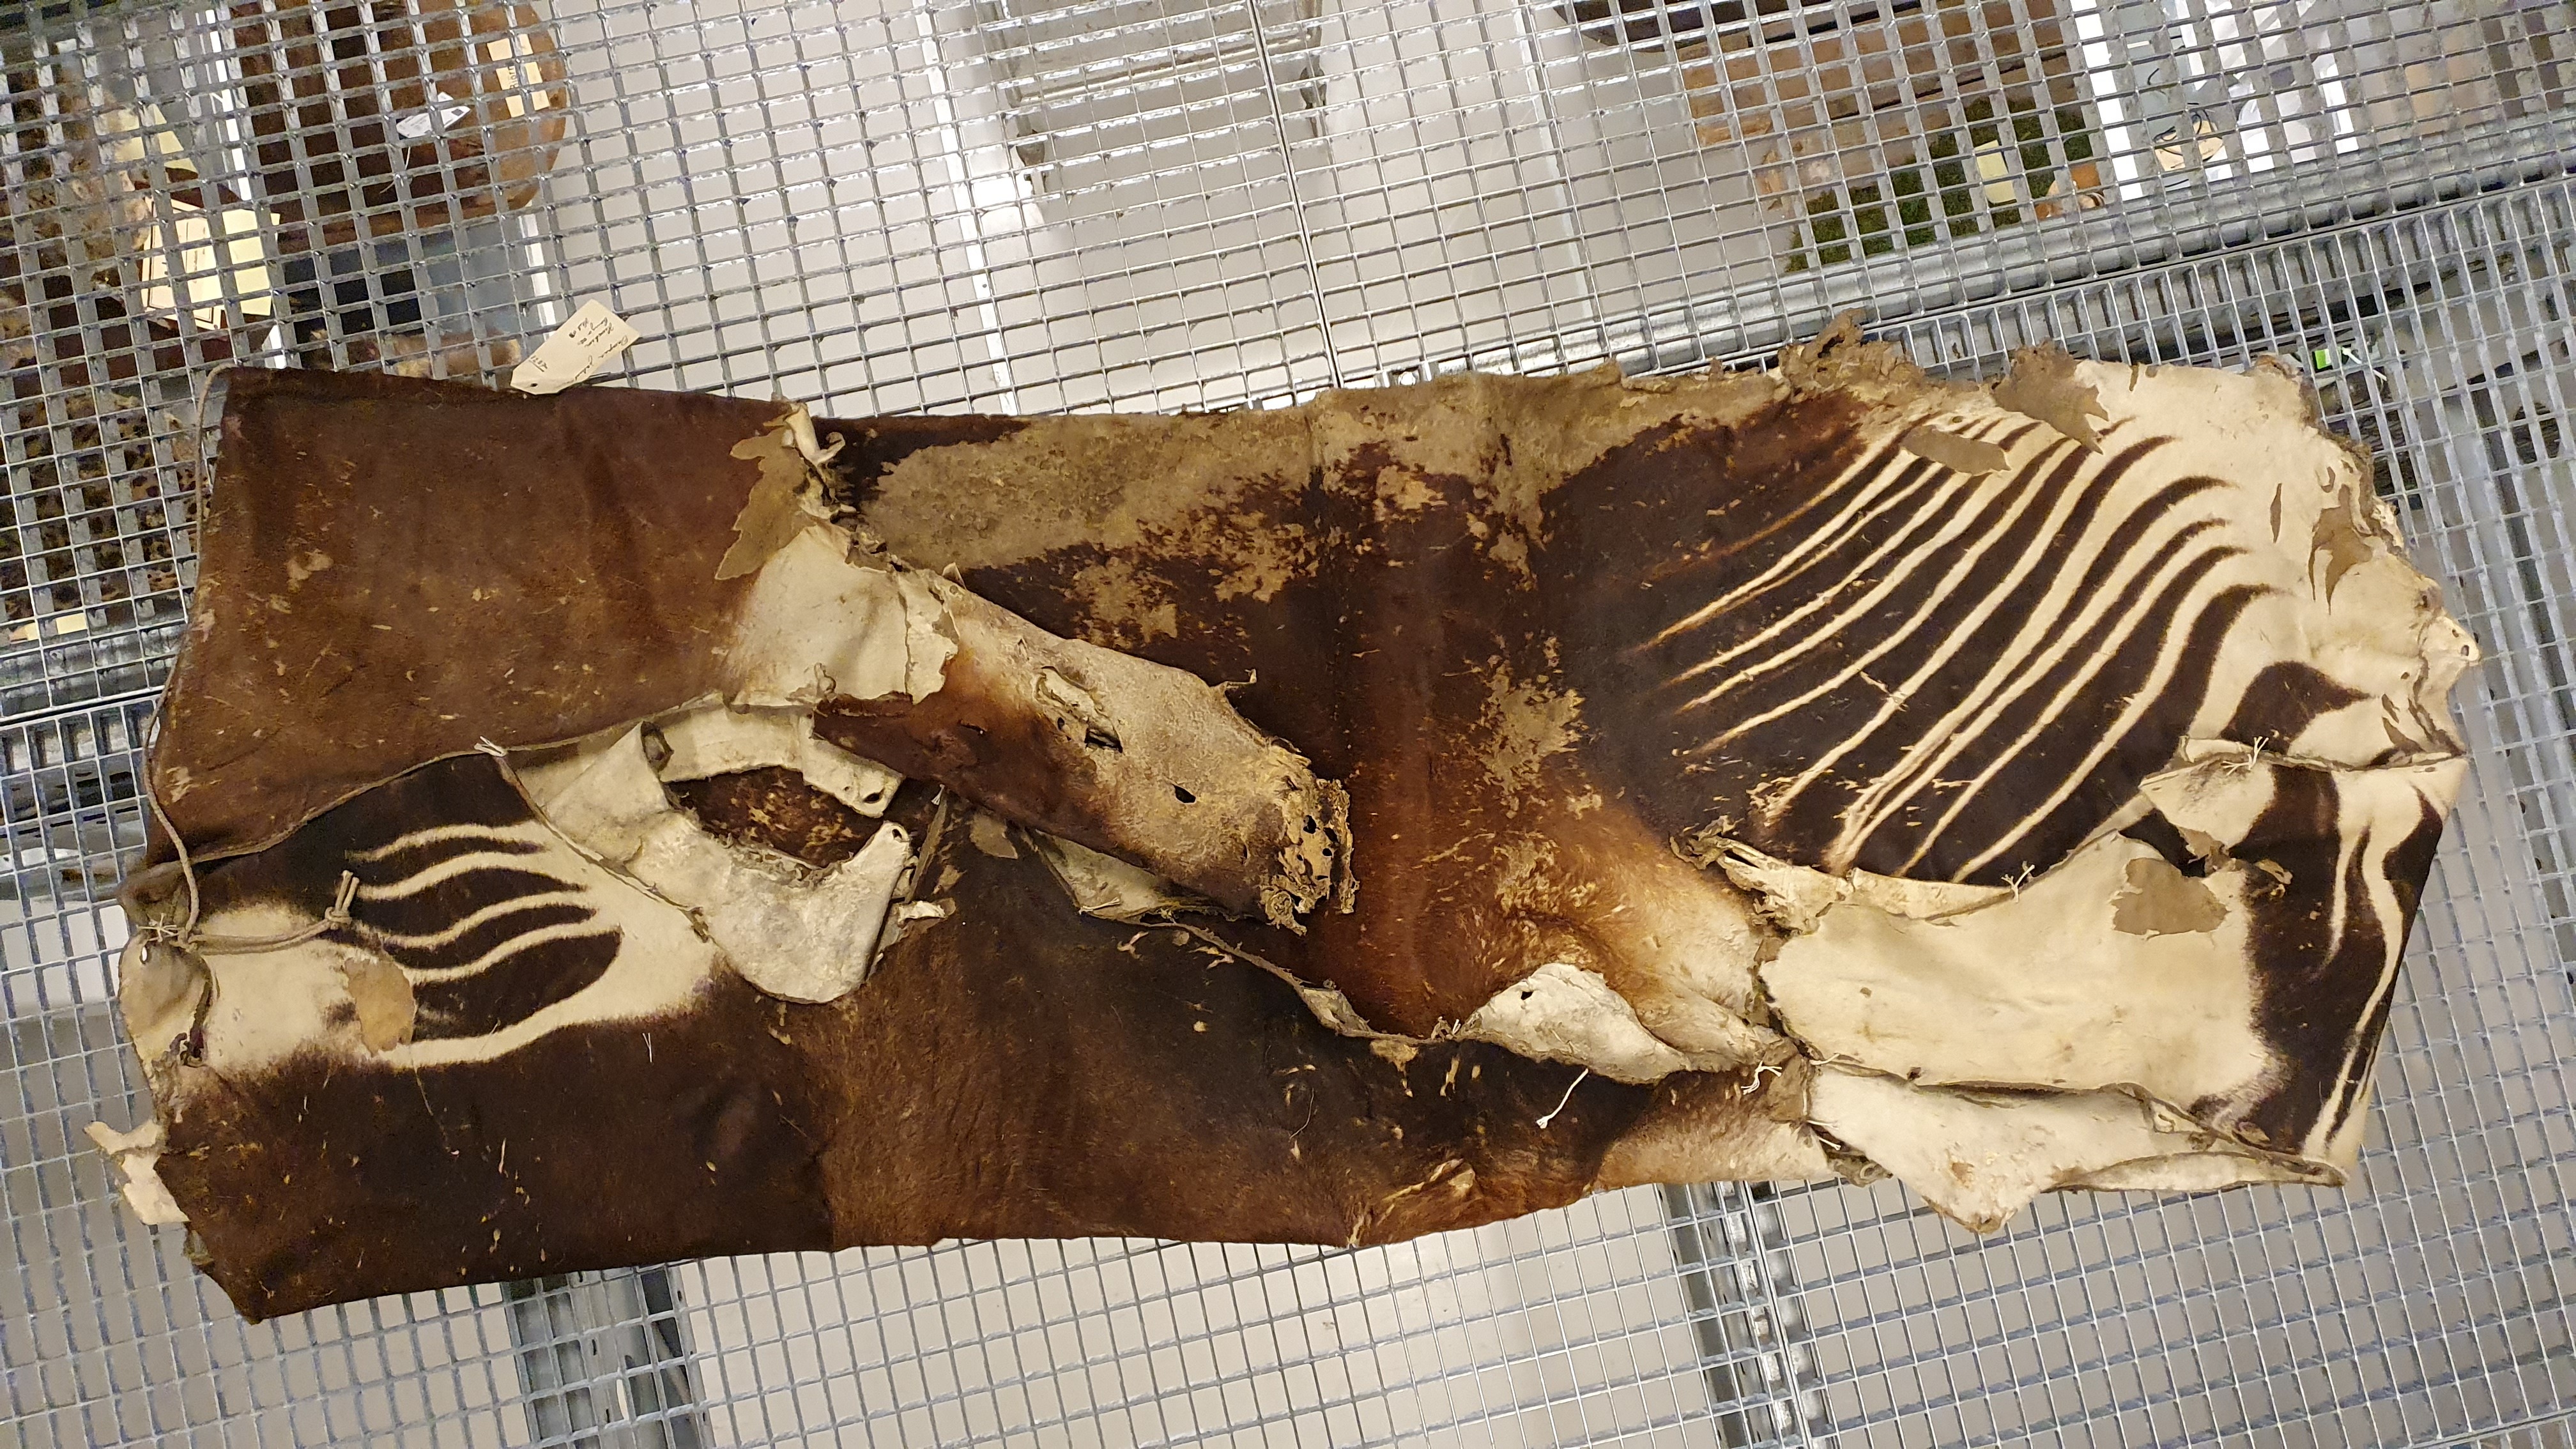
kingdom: Animalia
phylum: Chordata
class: Mammalia
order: Artiodactyla
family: Giraffidae
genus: Okapia
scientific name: Okapia johnstoni
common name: Okapi
